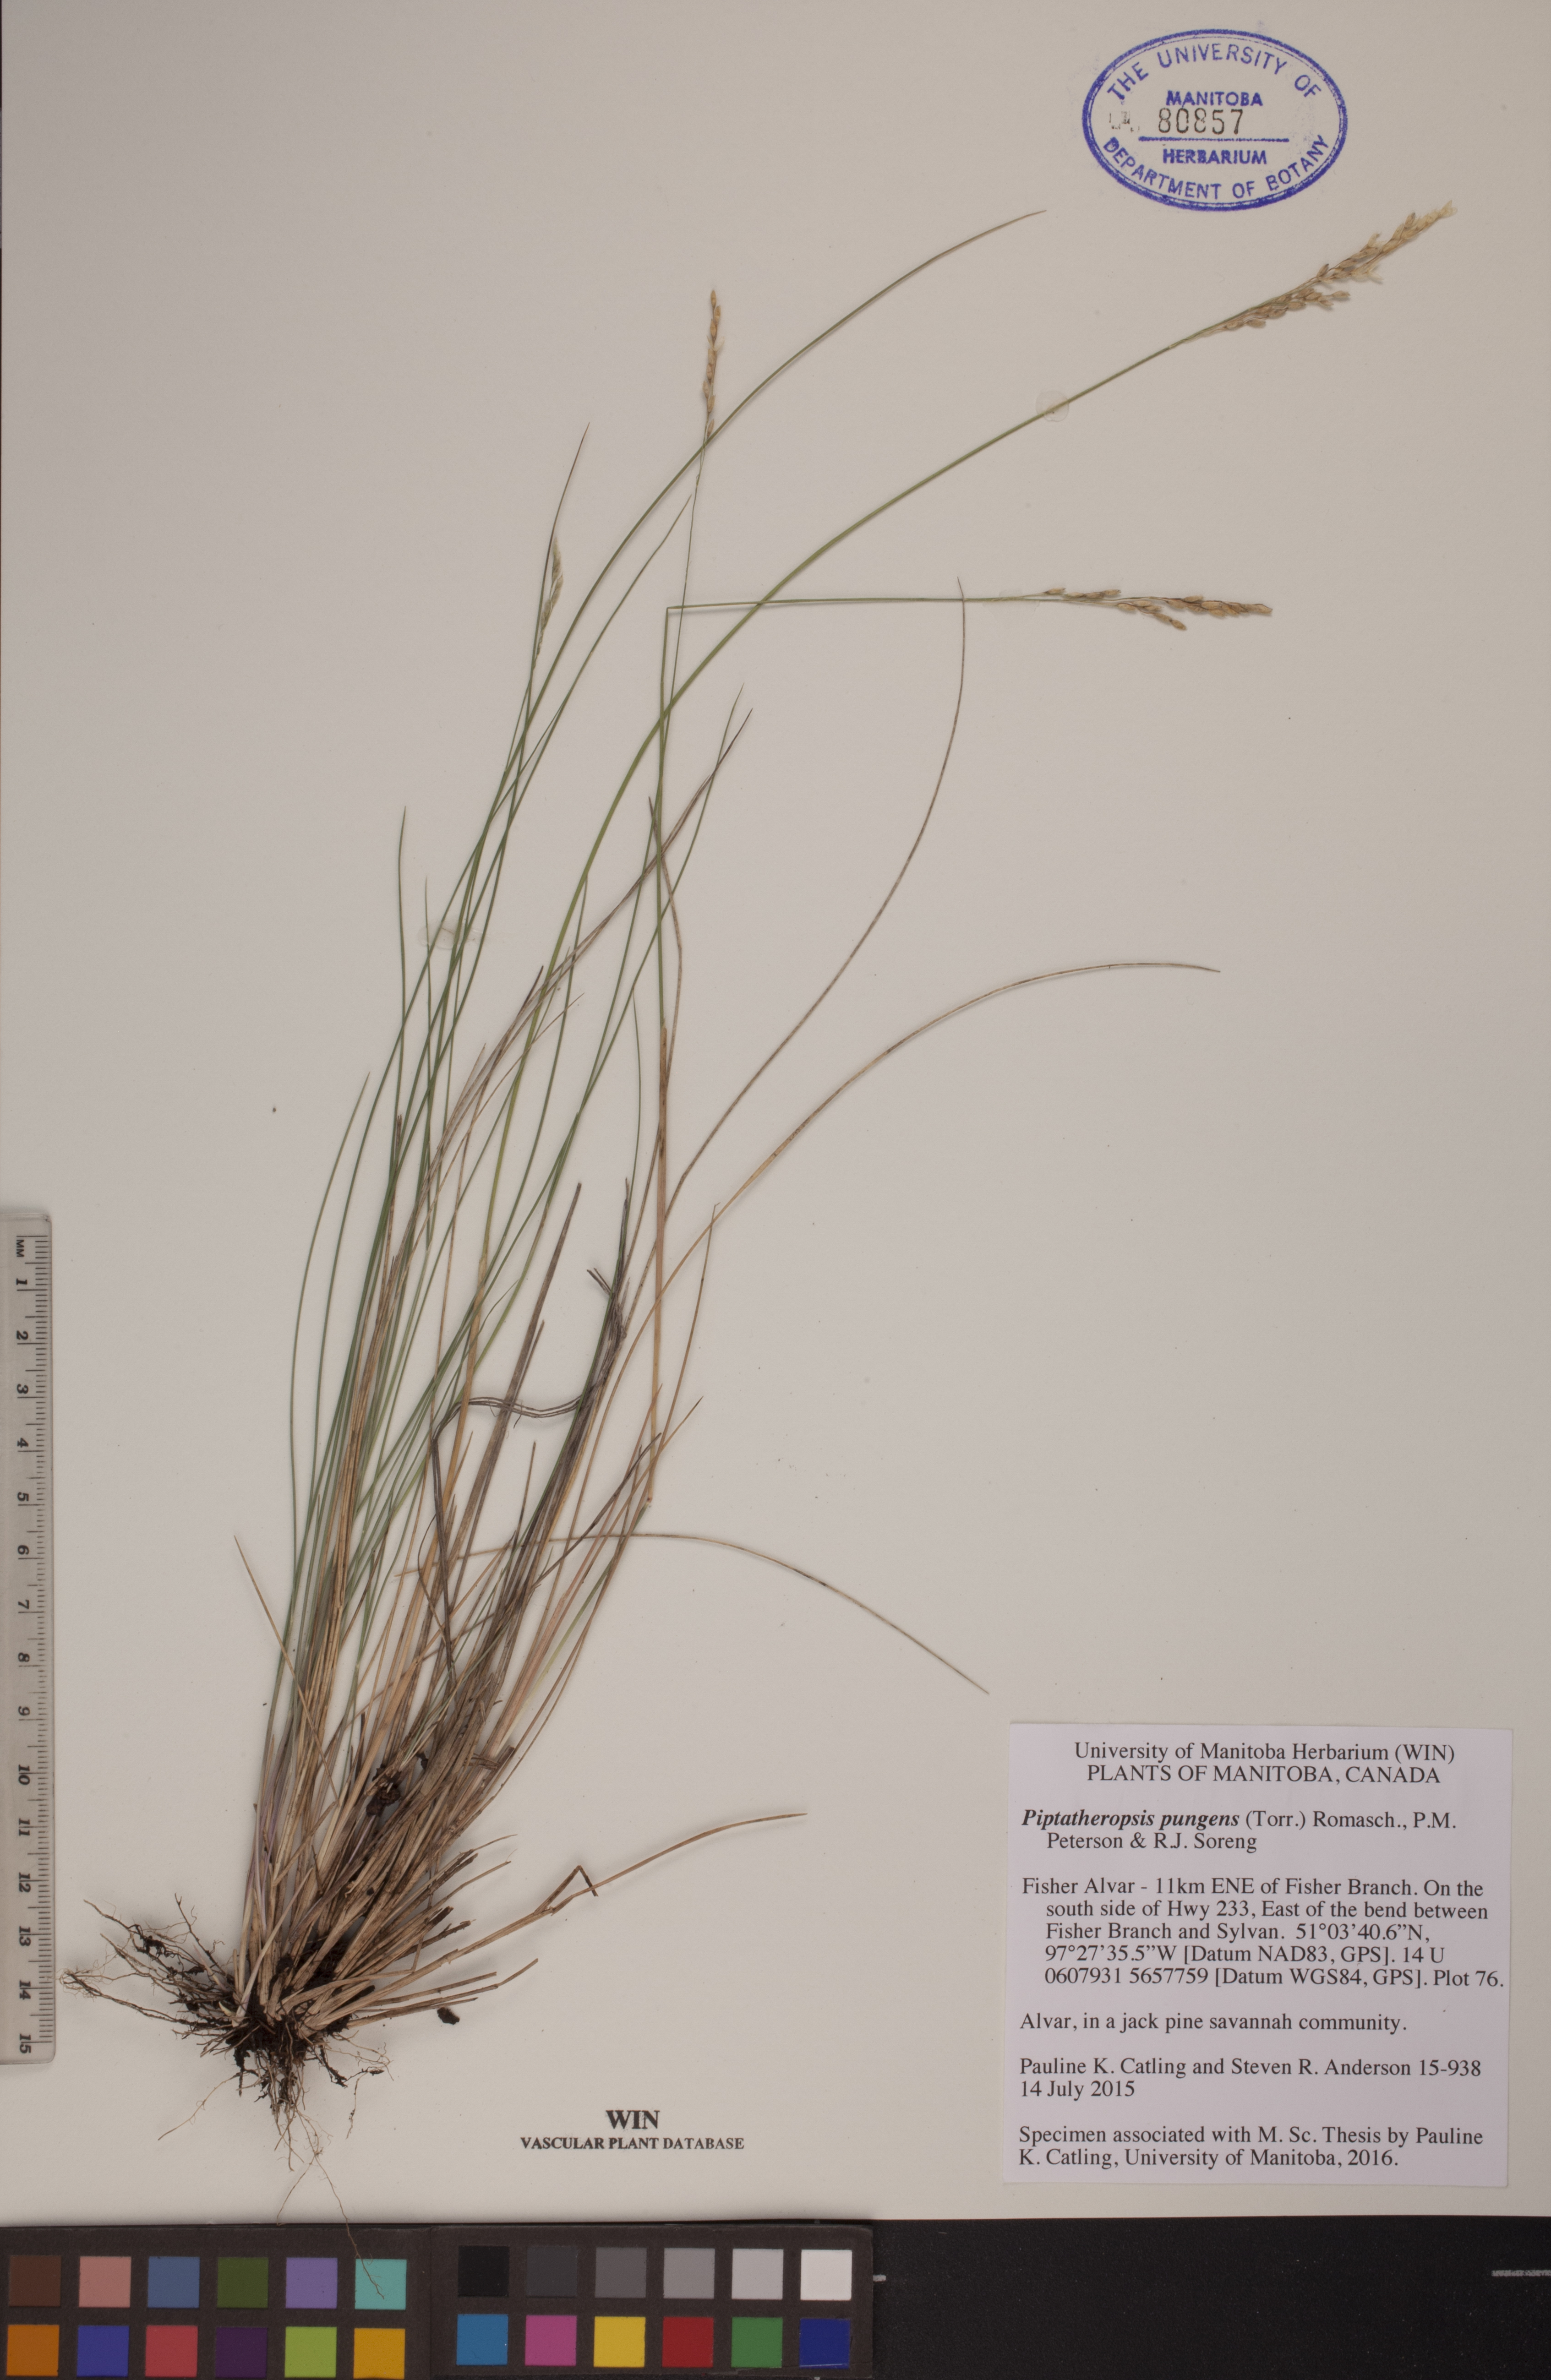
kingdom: Plantae
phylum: Tracheophyta
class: Liliopsida
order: Poales
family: Poaceae
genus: Piptatheropsis
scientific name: Piptatheropsis pungens
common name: Northern ricegrass
